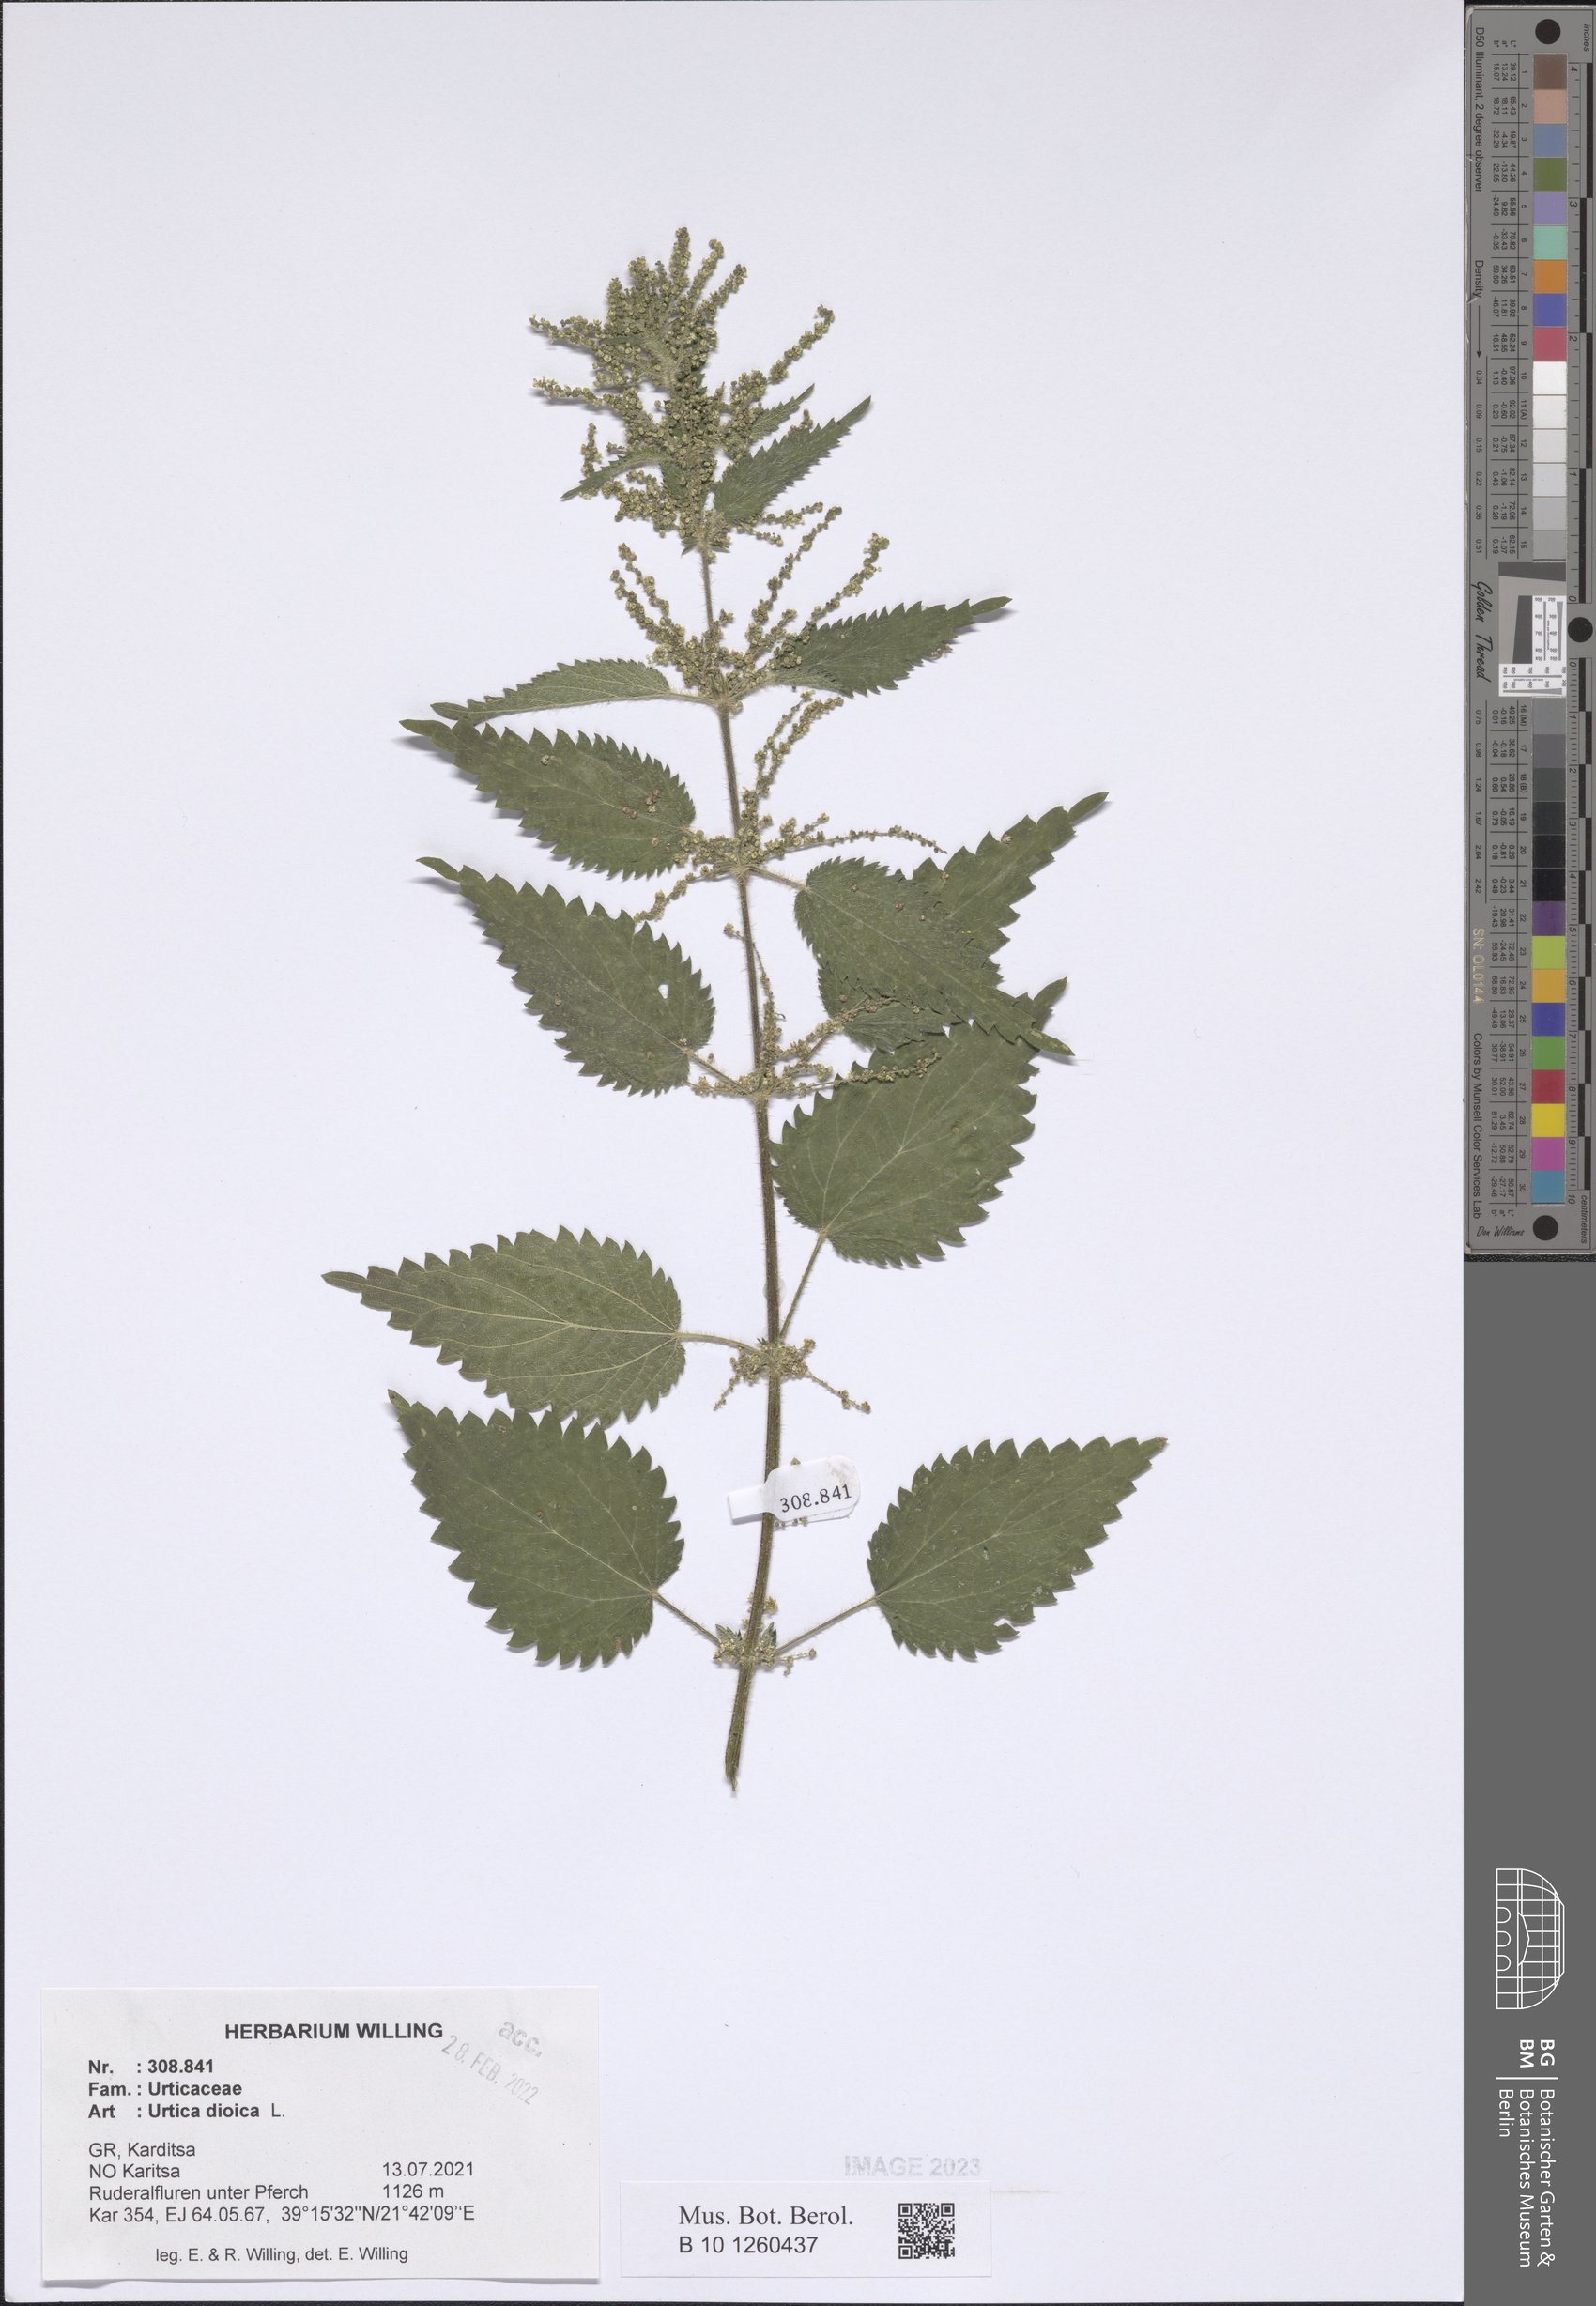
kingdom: Plantae
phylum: Tracheophyta
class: Magnoliopsida
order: Rosales
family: Urticaceae
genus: Urtica
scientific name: Urtica dioica
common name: Common nettle
